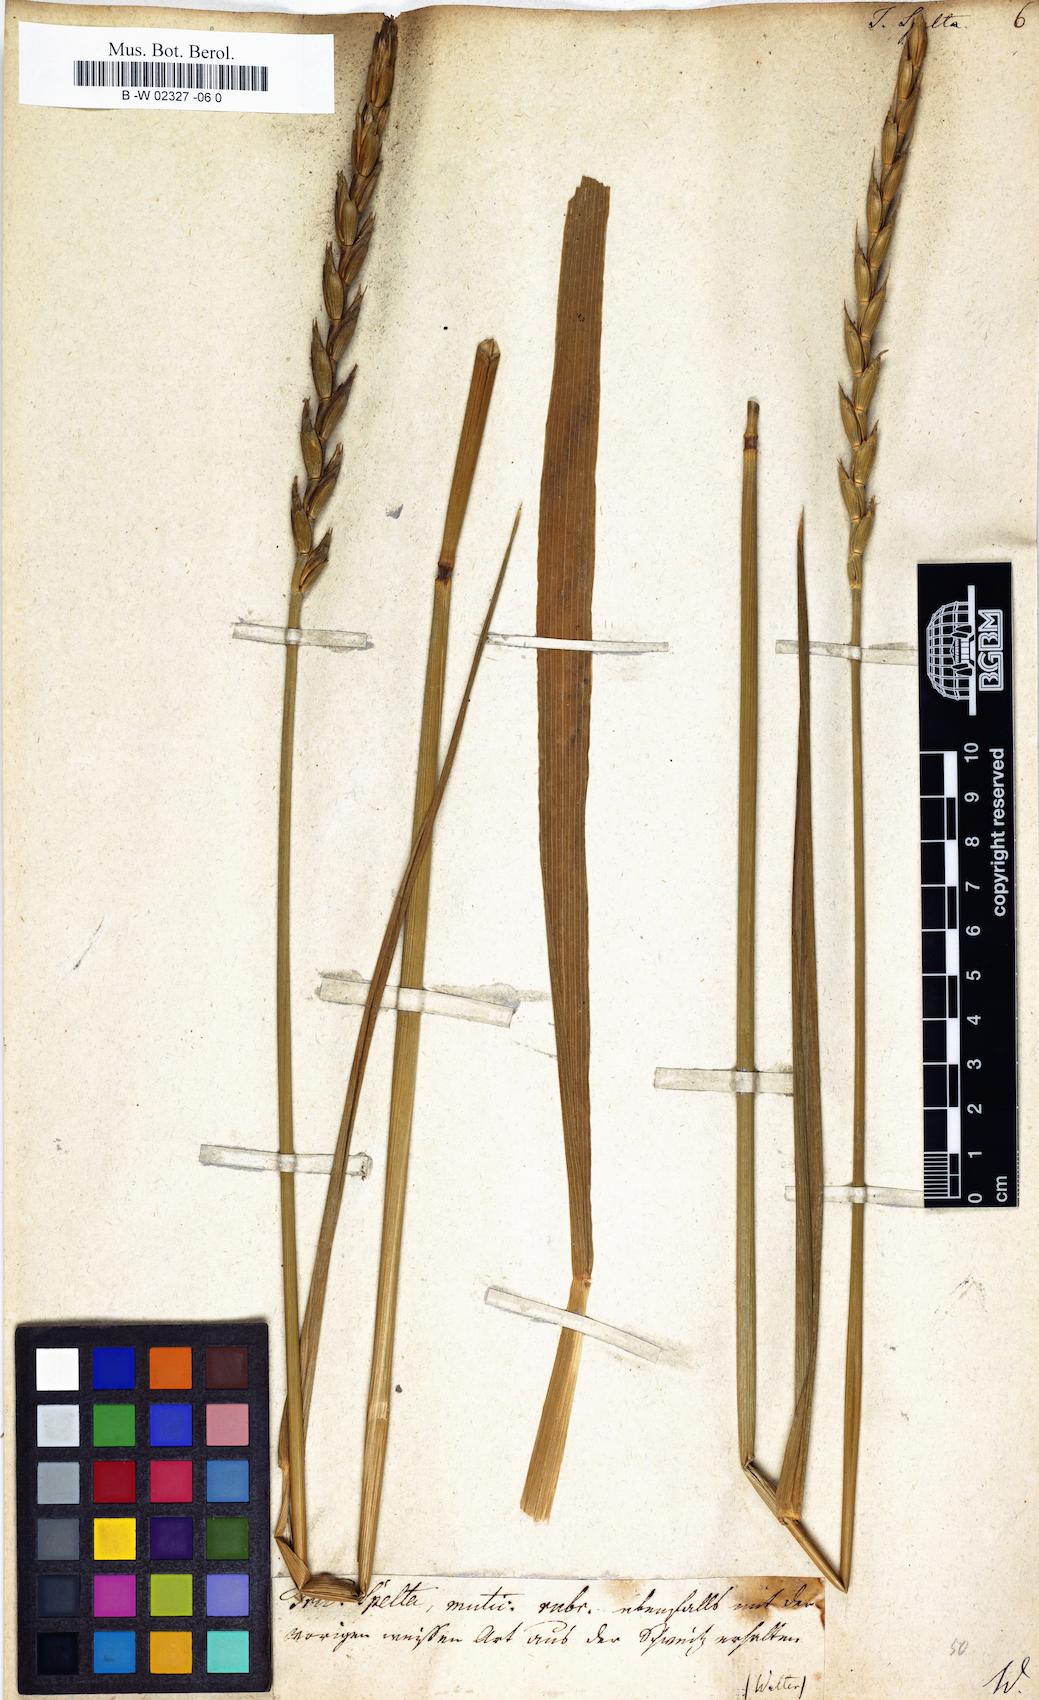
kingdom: Plantae
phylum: Tracheophyta
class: Liliopsida
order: Poales
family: Poaceae
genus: Triticum
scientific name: Triticum aestivum
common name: Common wheat
